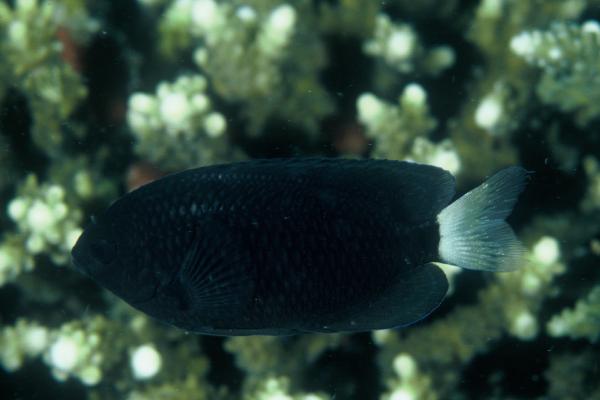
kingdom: Animalia
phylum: Chordata
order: Perciformes
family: Pomacentridae
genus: Pomacentrus
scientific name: Pomacentrus trichrourus
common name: Paletail damsel
